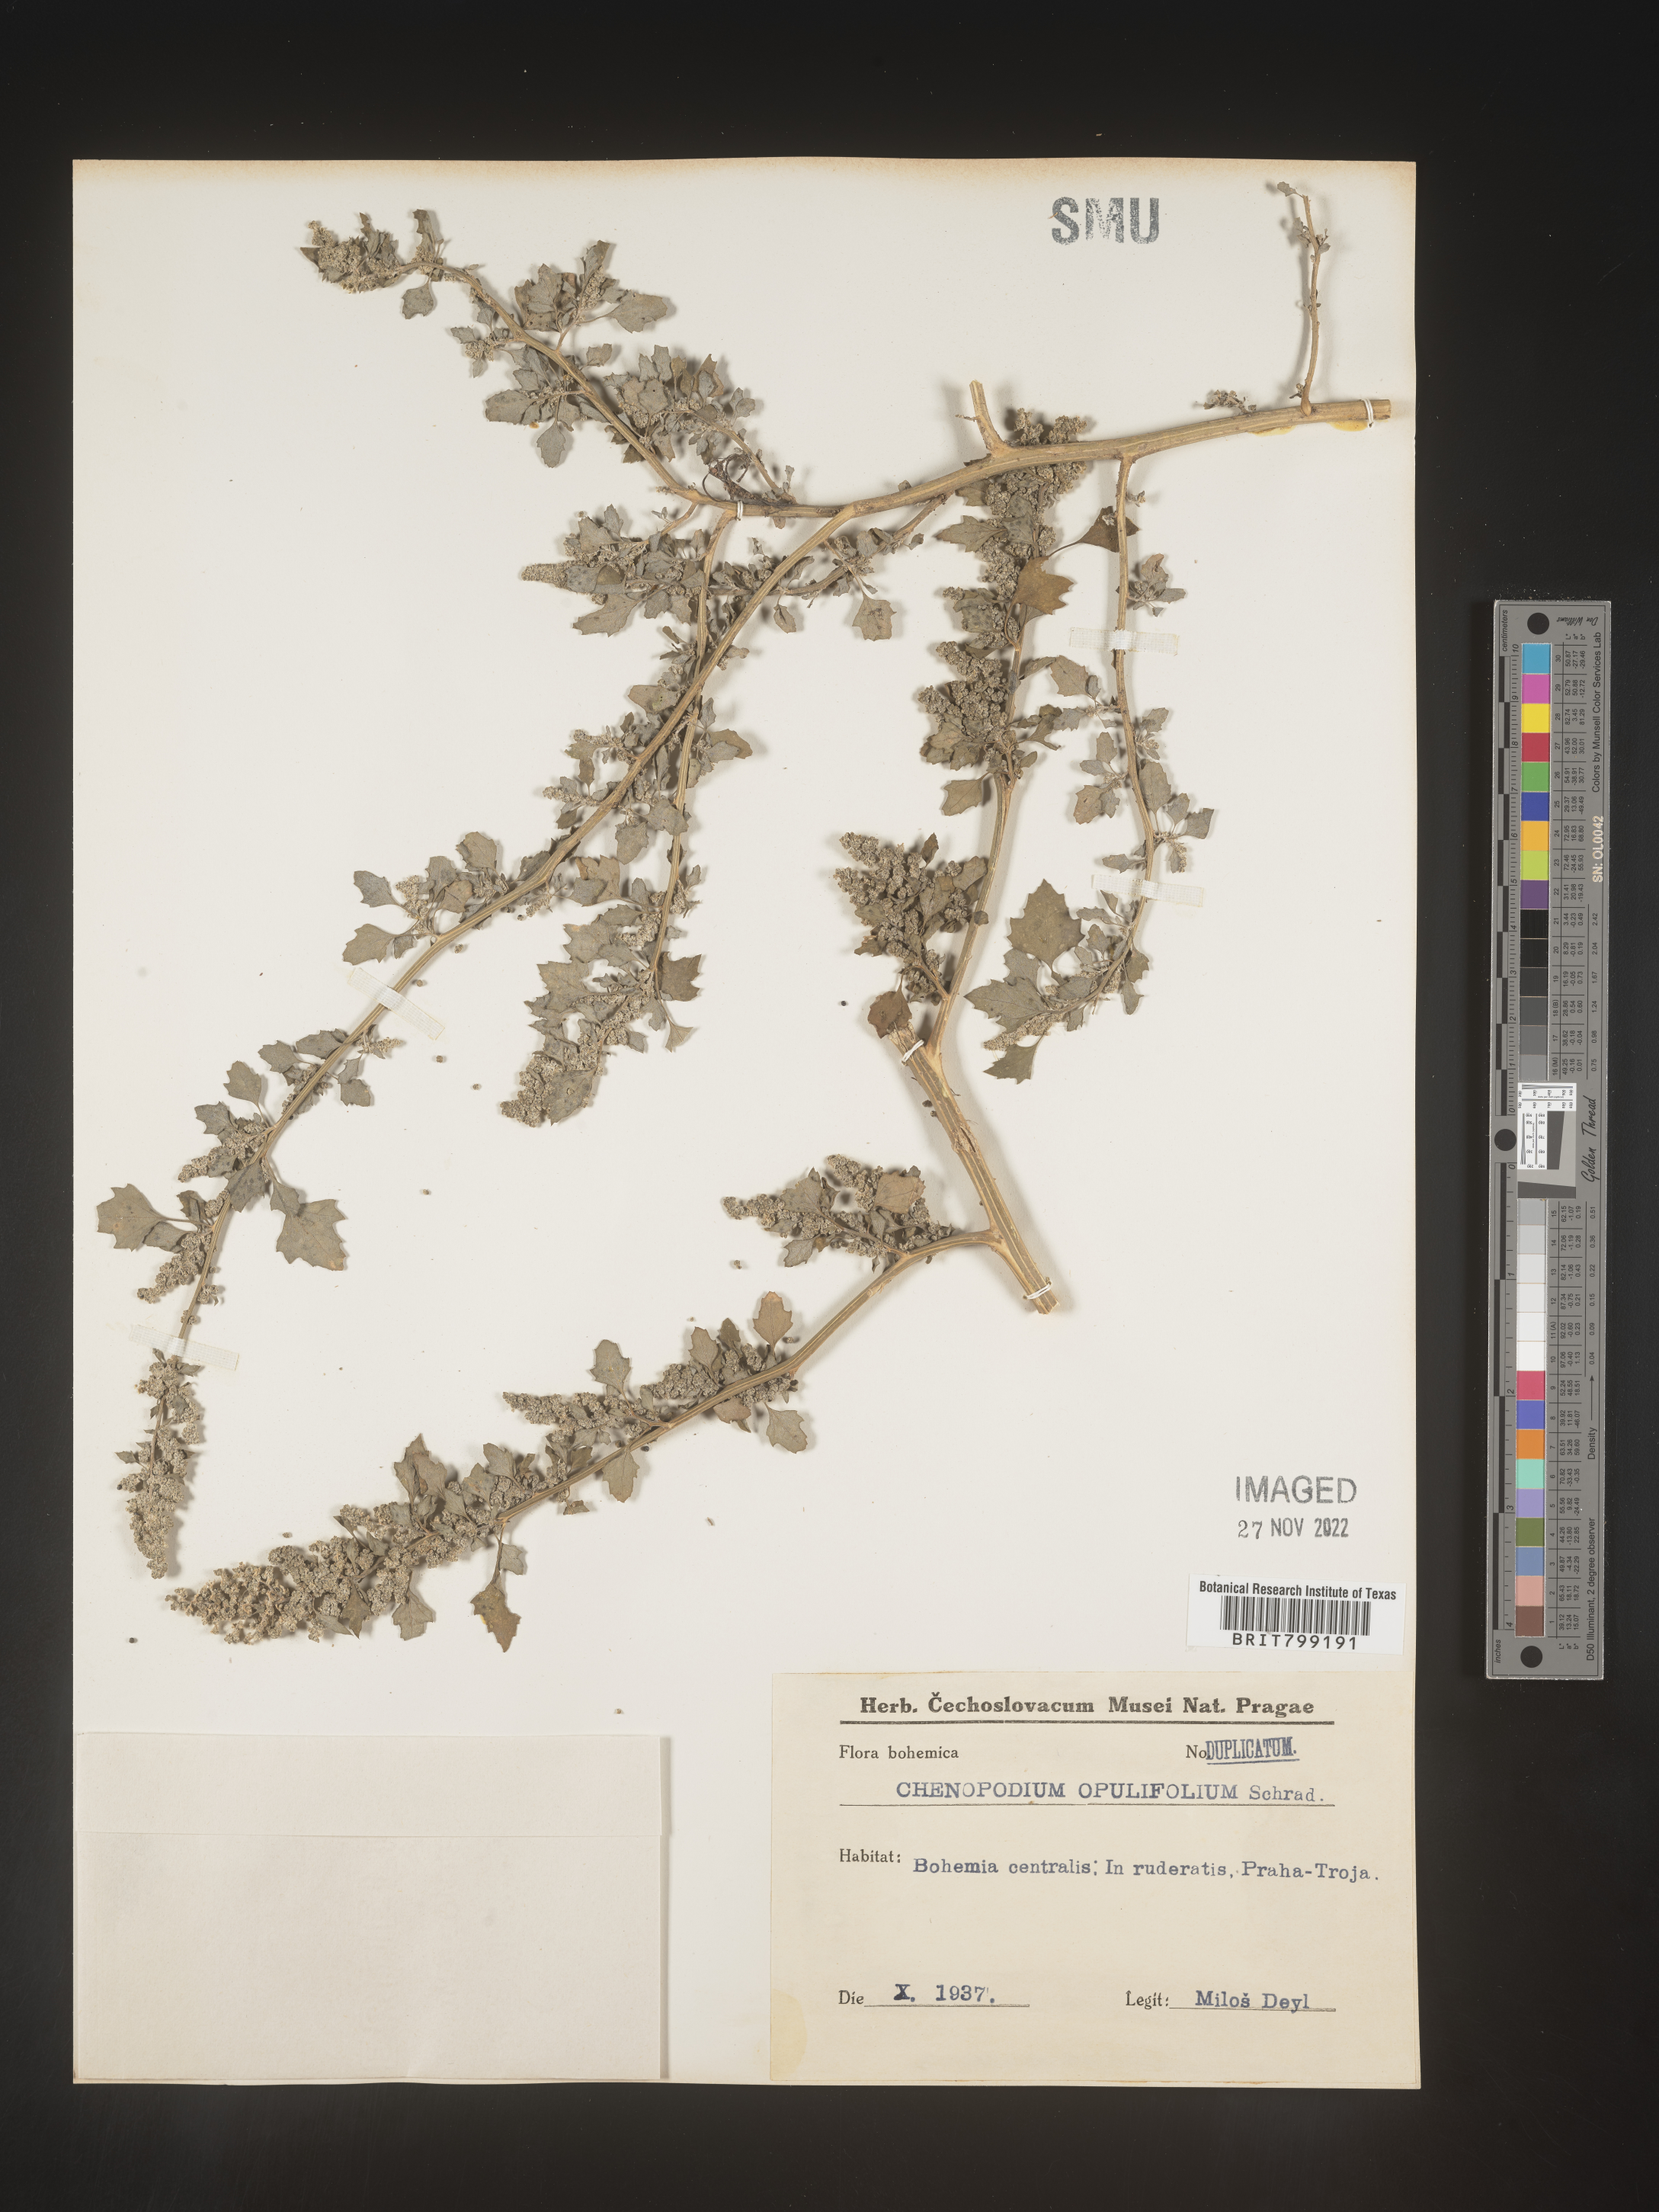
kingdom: Plantae
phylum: Tracheophyta
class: Magnoliopsida
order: Caryophyllales
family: Amaranthaceae
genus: Chenopodium
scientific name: Chenopodium opulifolium
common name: Grey goosefoot
